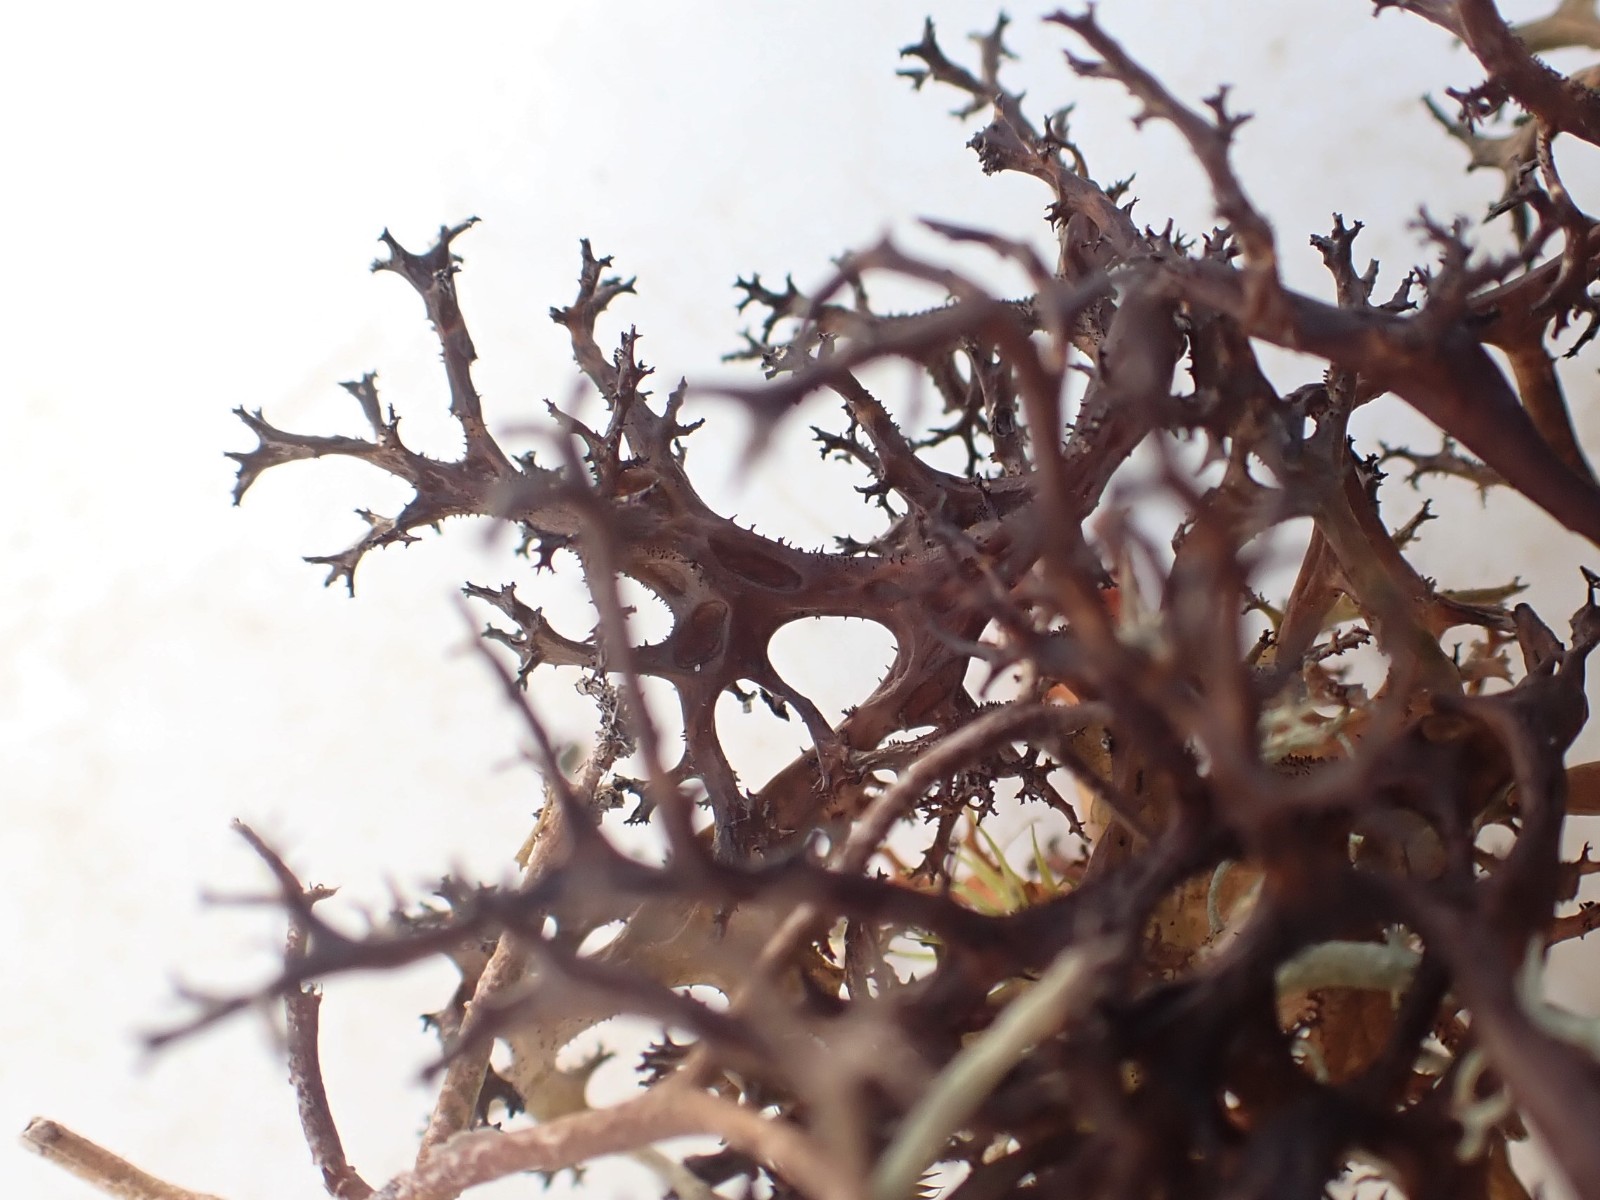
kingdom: Fungi
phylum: Ascomycota
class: Lecanoromycetes
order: Lecanorales
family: Parmeliaceae
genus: Cetraria
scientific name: Cetraria aculeata
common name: grubet tjørnelav
